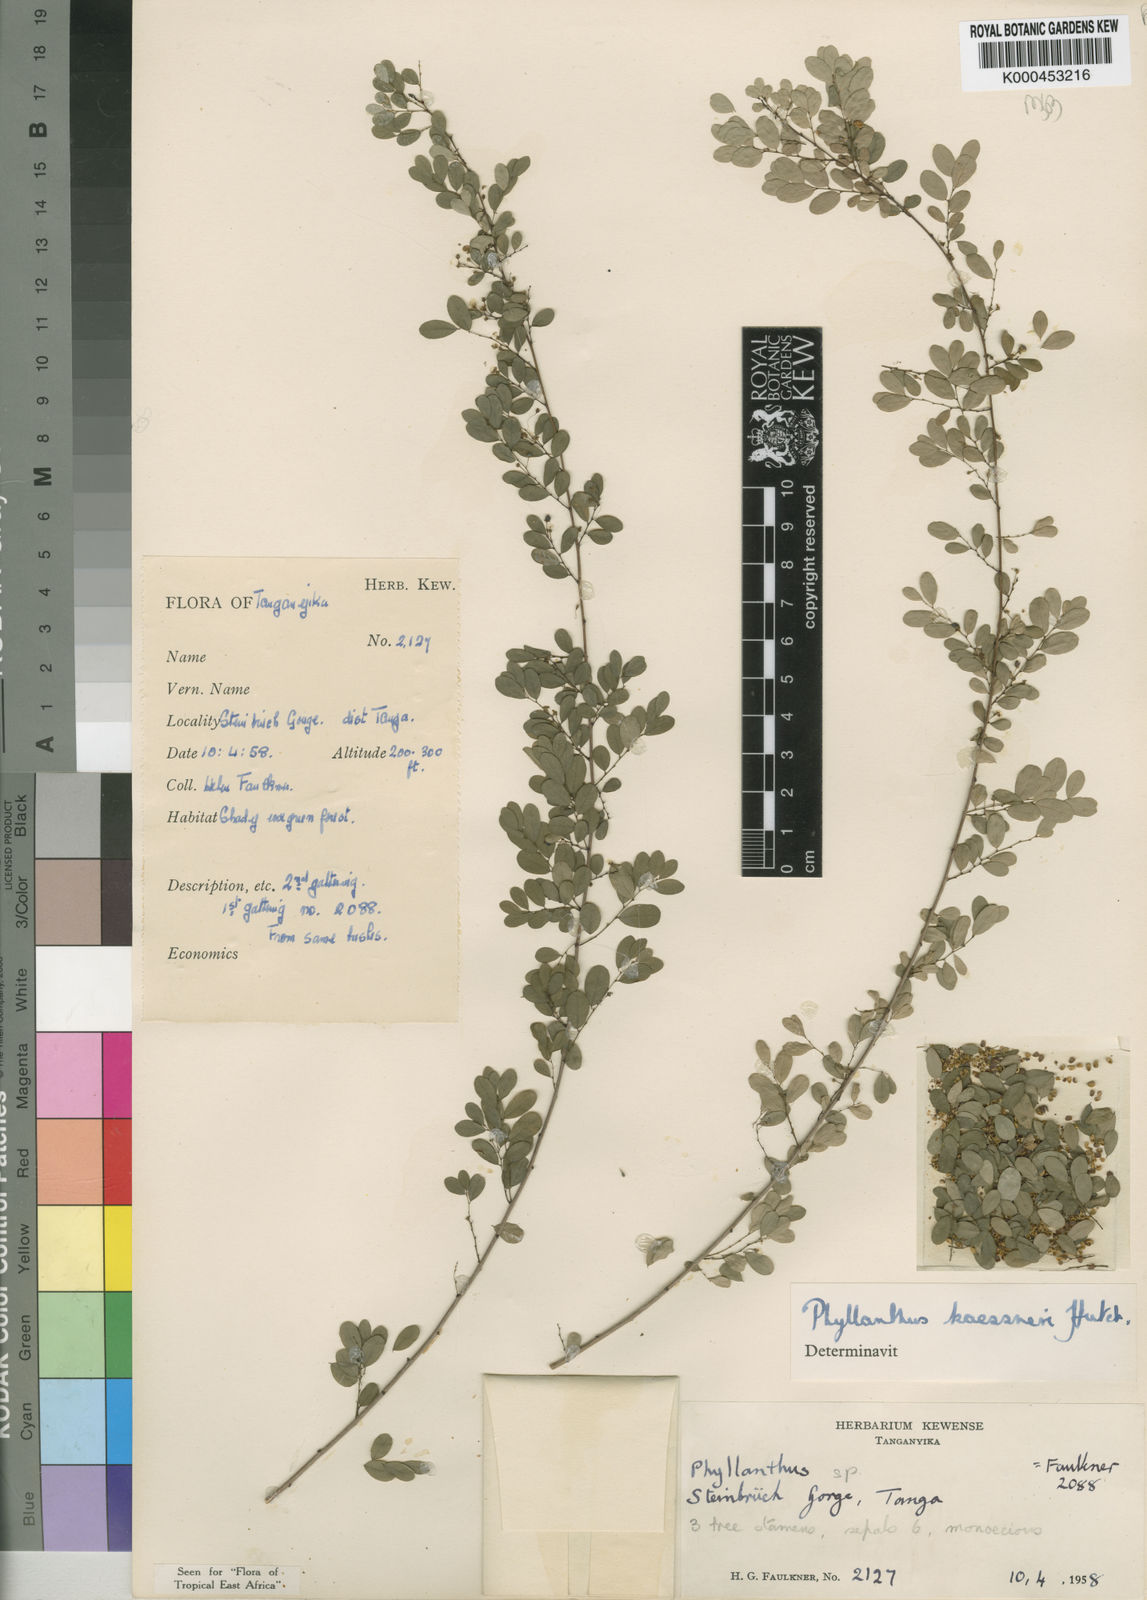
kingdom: Plantae
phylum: Tracheophyta
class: Magnoliopsida
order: Malpighiales
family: Phyllanthaceae
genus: Phyllanthus
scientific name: Phyllanthus kaessneri
